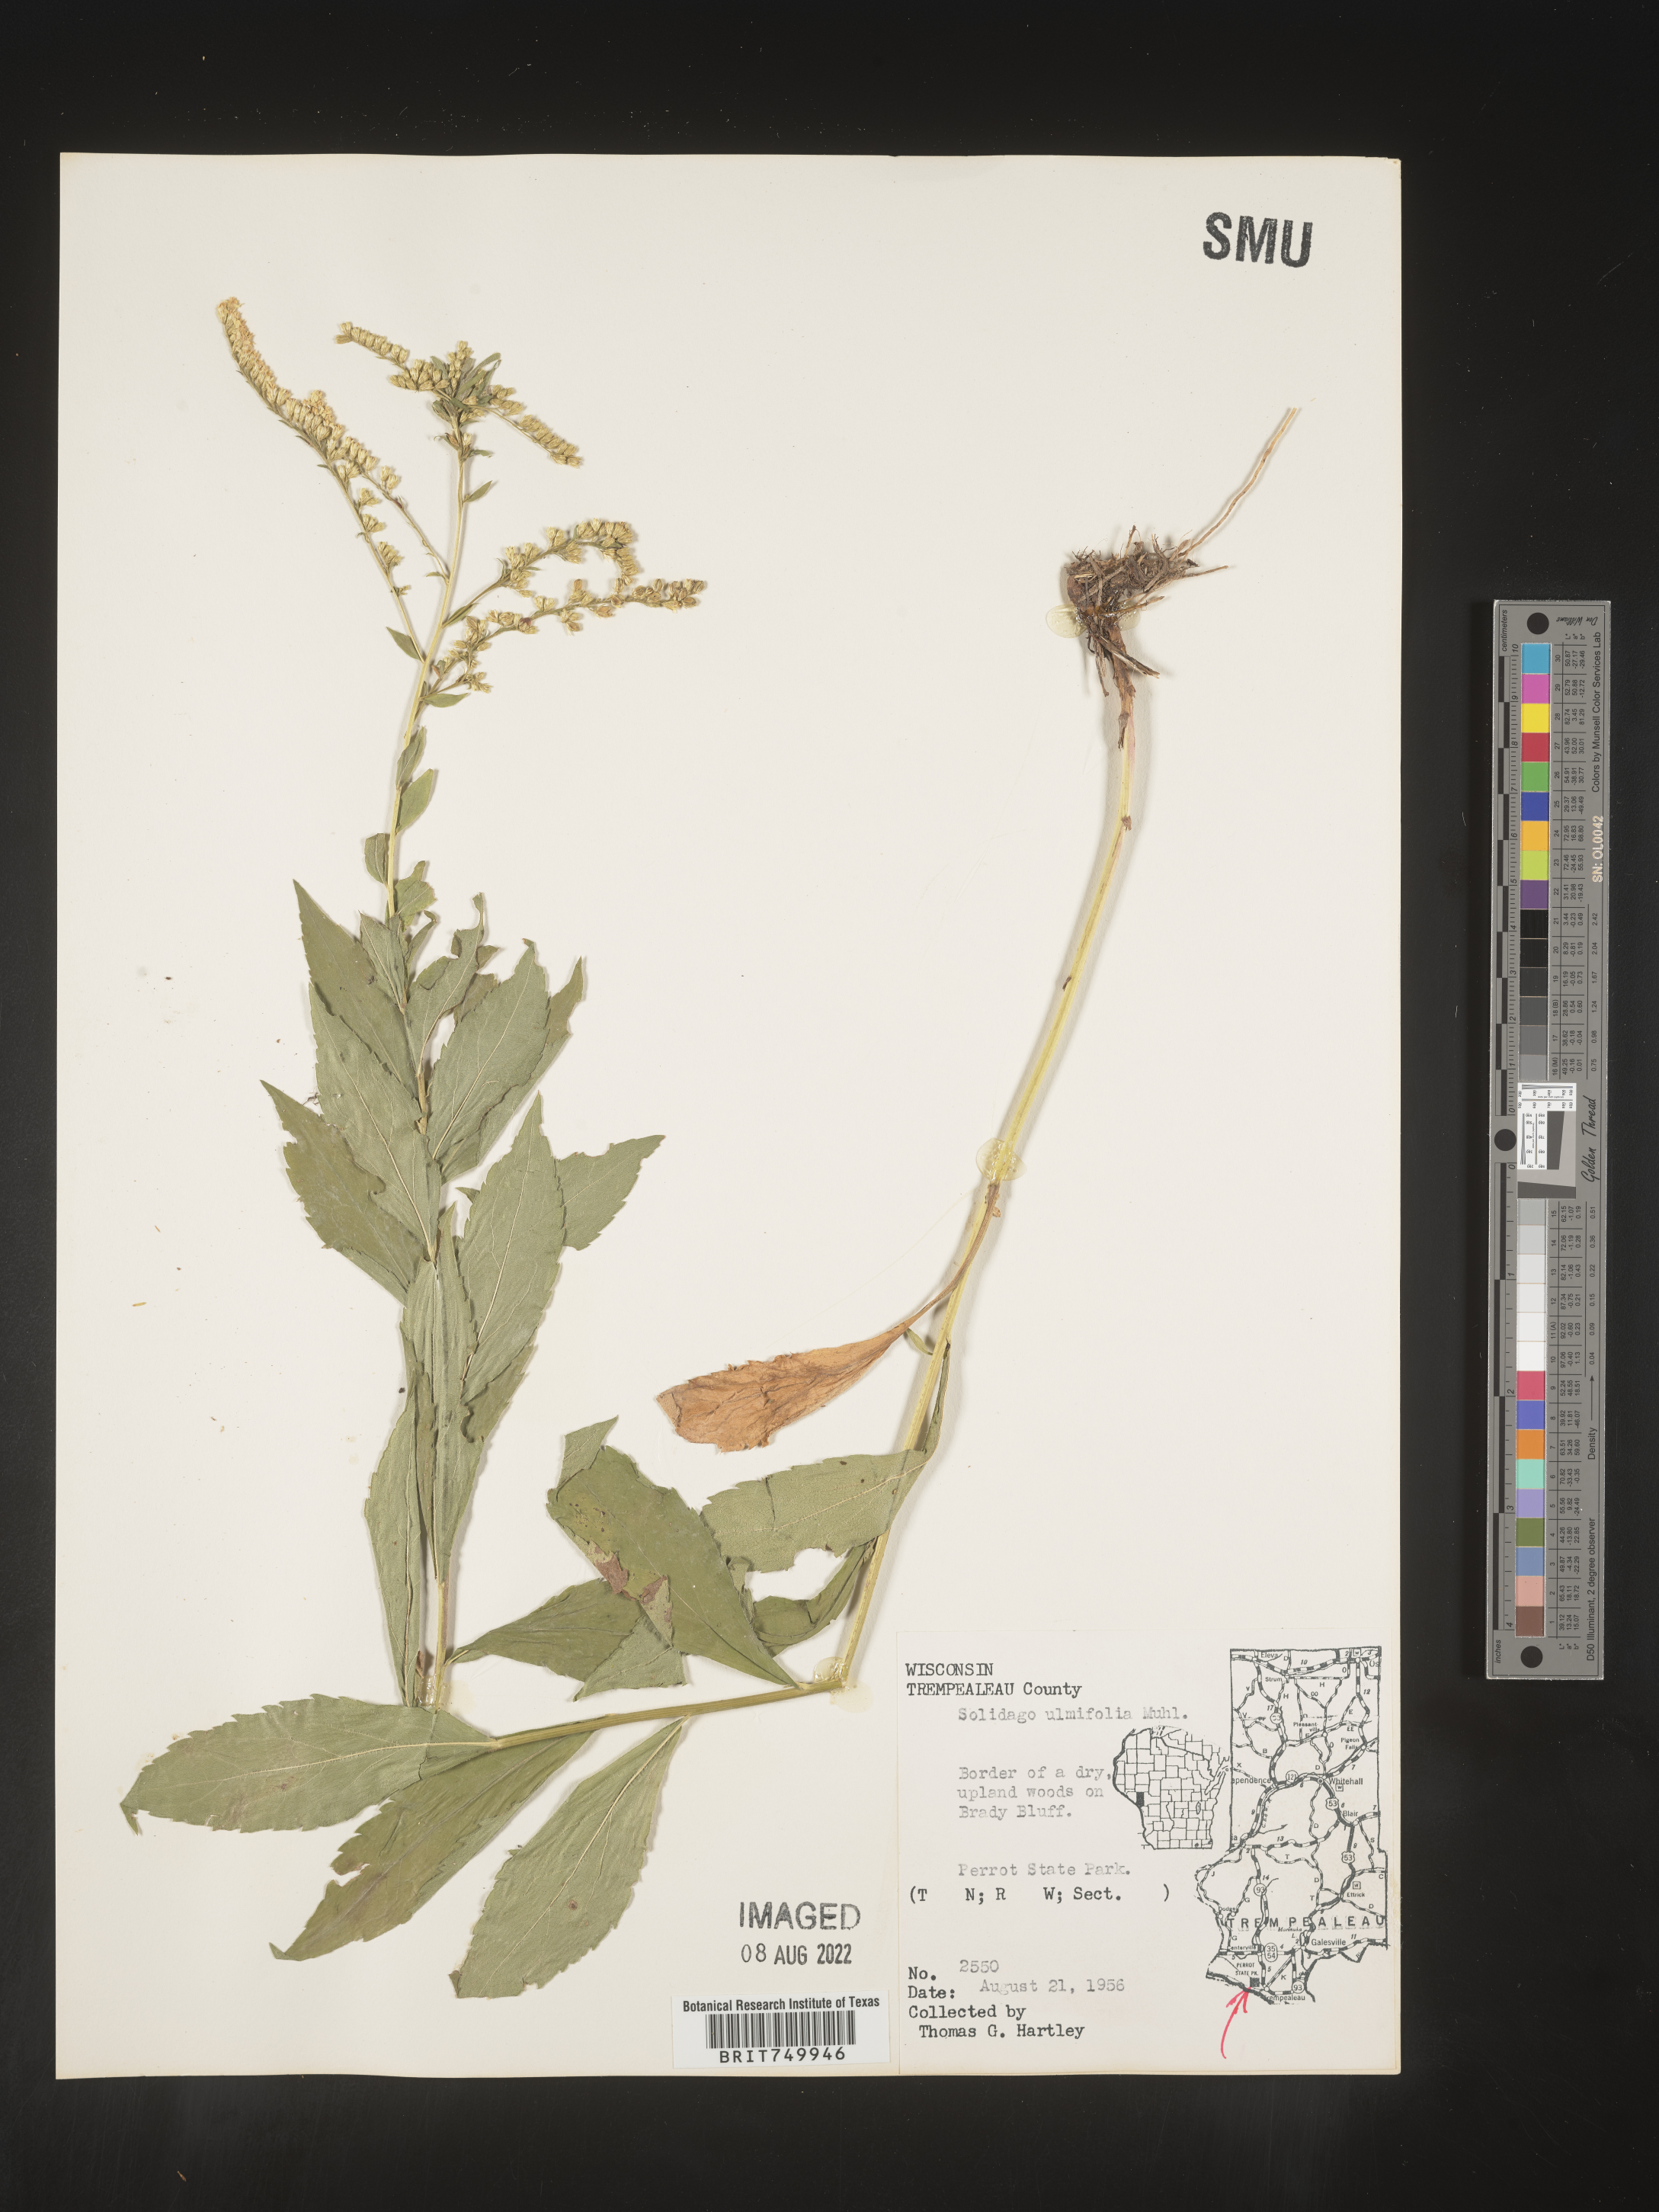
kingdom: Plantae
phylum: Tracheophyta
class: Magnoliopsida
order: Asterales
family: Asteraceae
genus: Solidago
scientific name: Solidago ulmifolia
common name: Elm-leaf goldenrod
